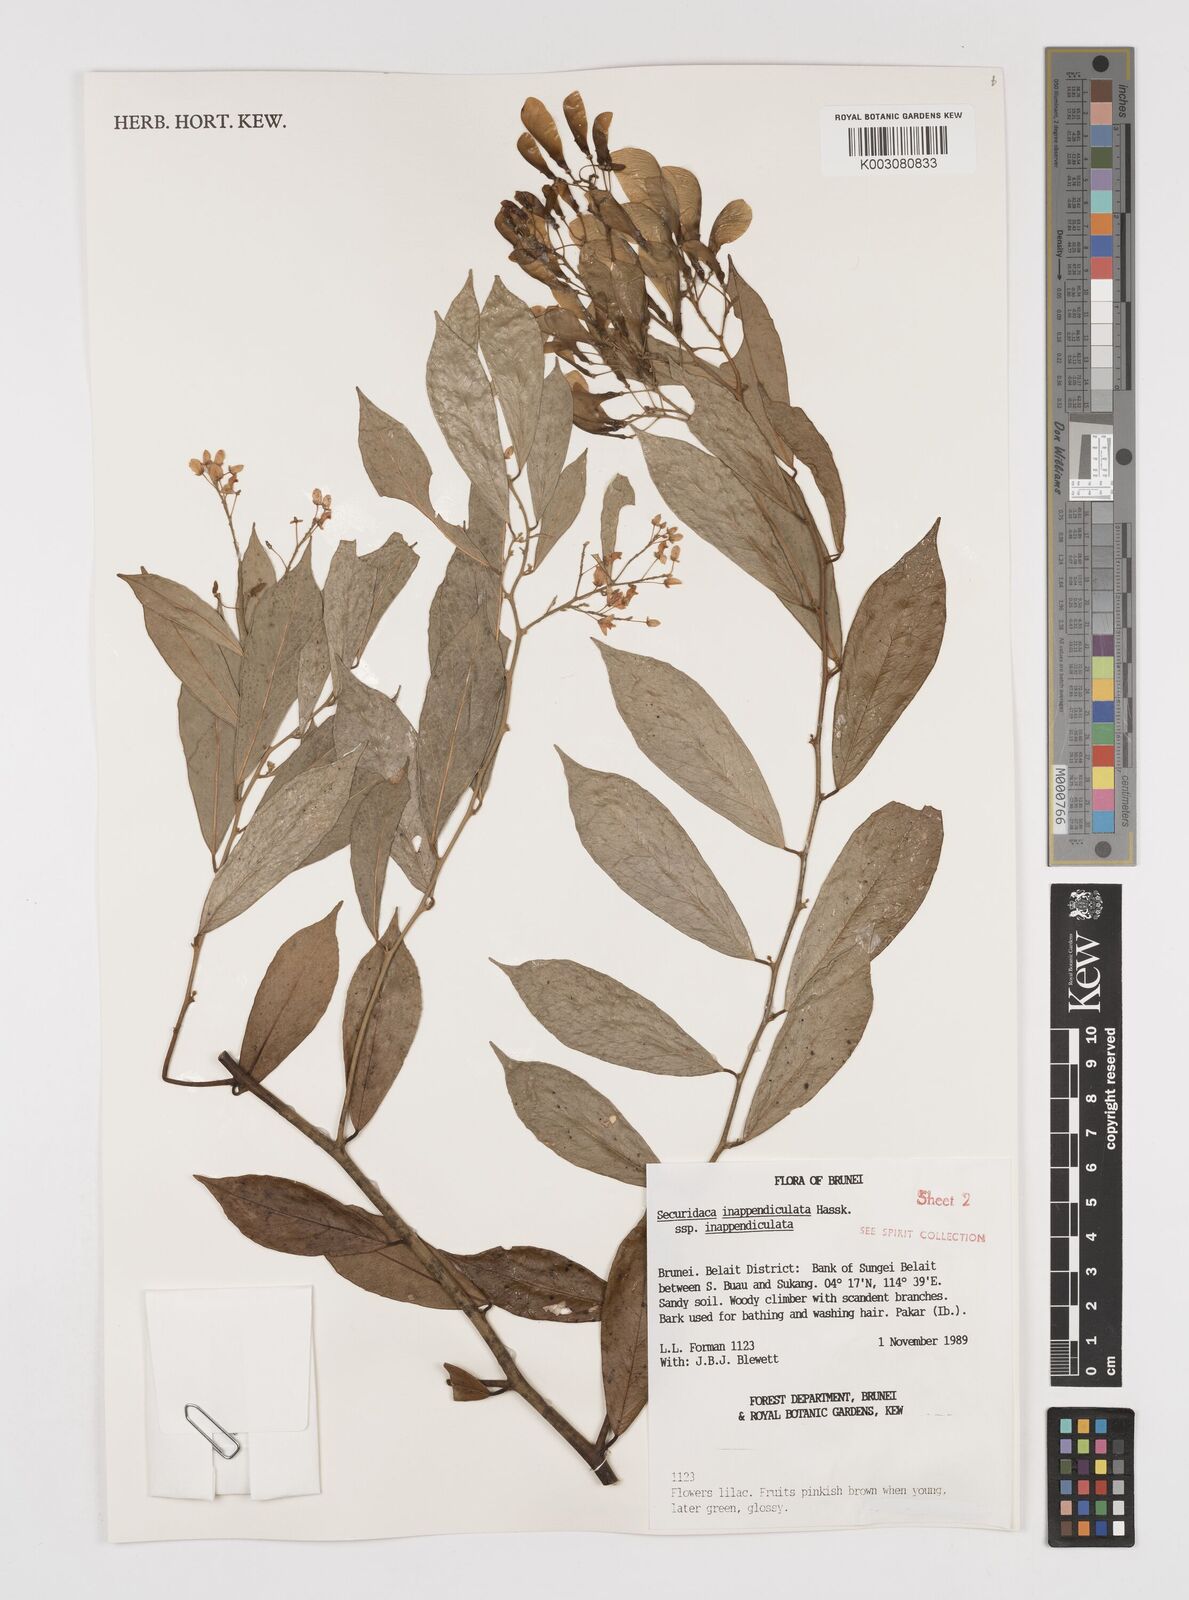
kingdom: Plantae
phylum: Tracheophyta
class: Magnoliopsida
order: Fabales
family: Polygalaceae
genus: Securidaca
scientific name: Securidaca inappendiculata
